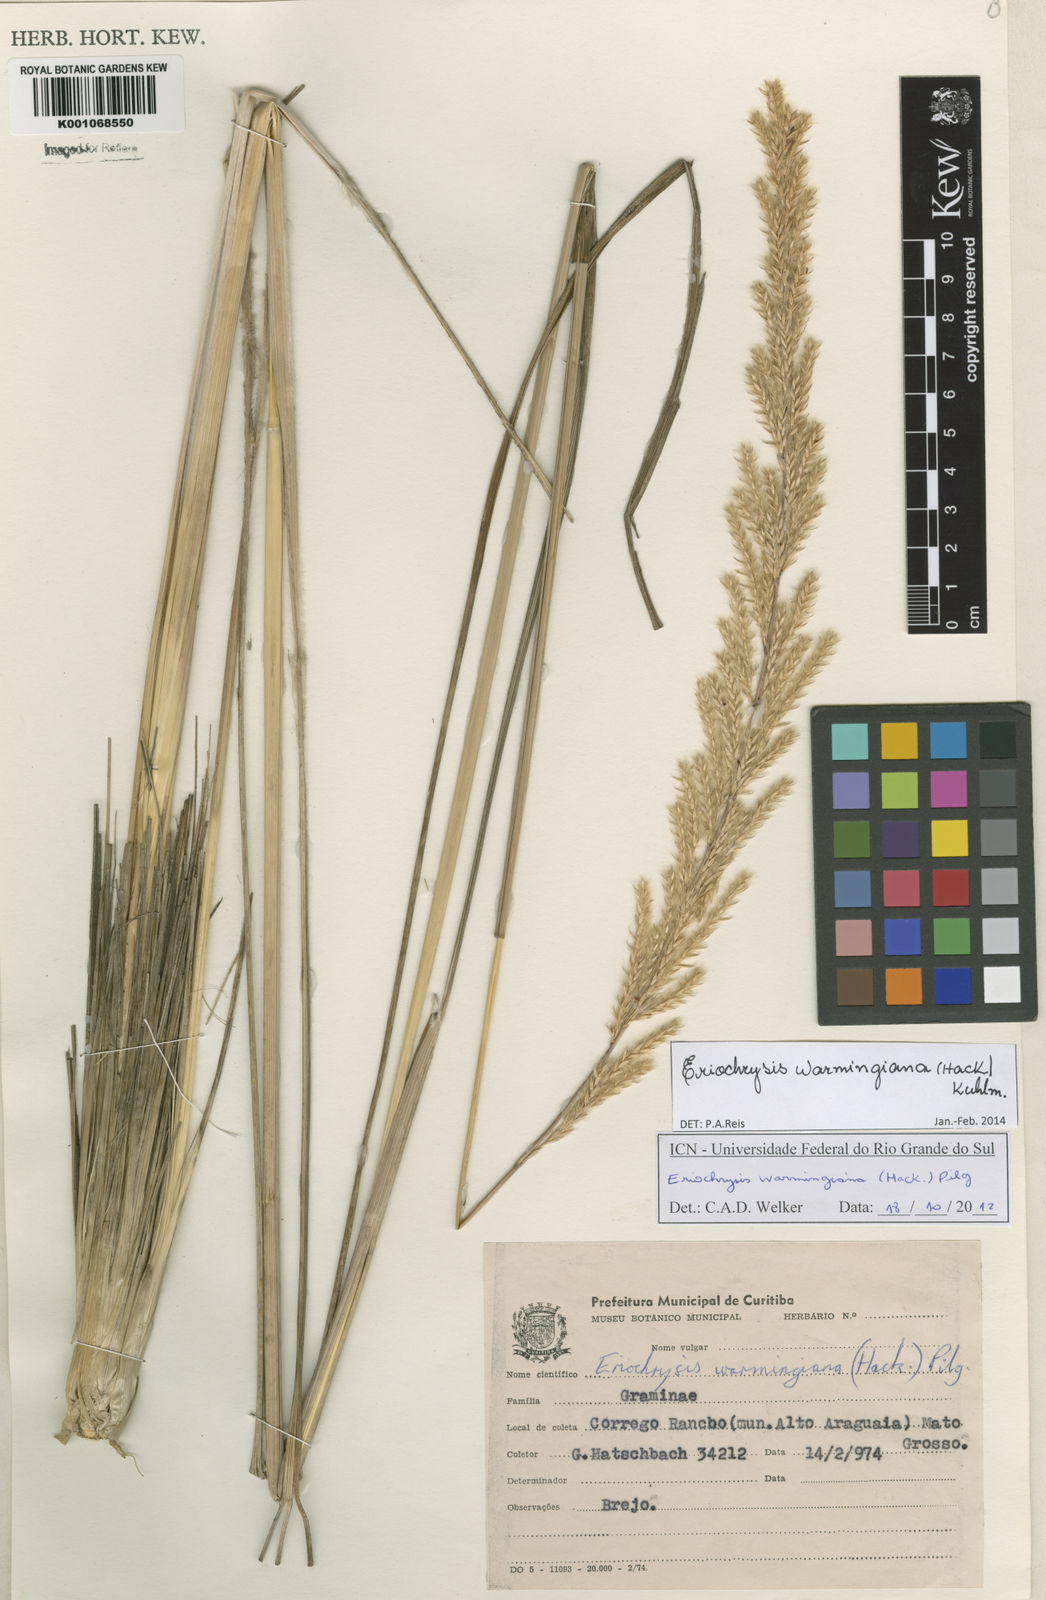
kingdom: Plantae
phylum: Tracheophyta
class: Liliopsida
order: Poales
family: Poaceae
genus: Eriochrysis
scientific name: Eriochrysis warmingiana
